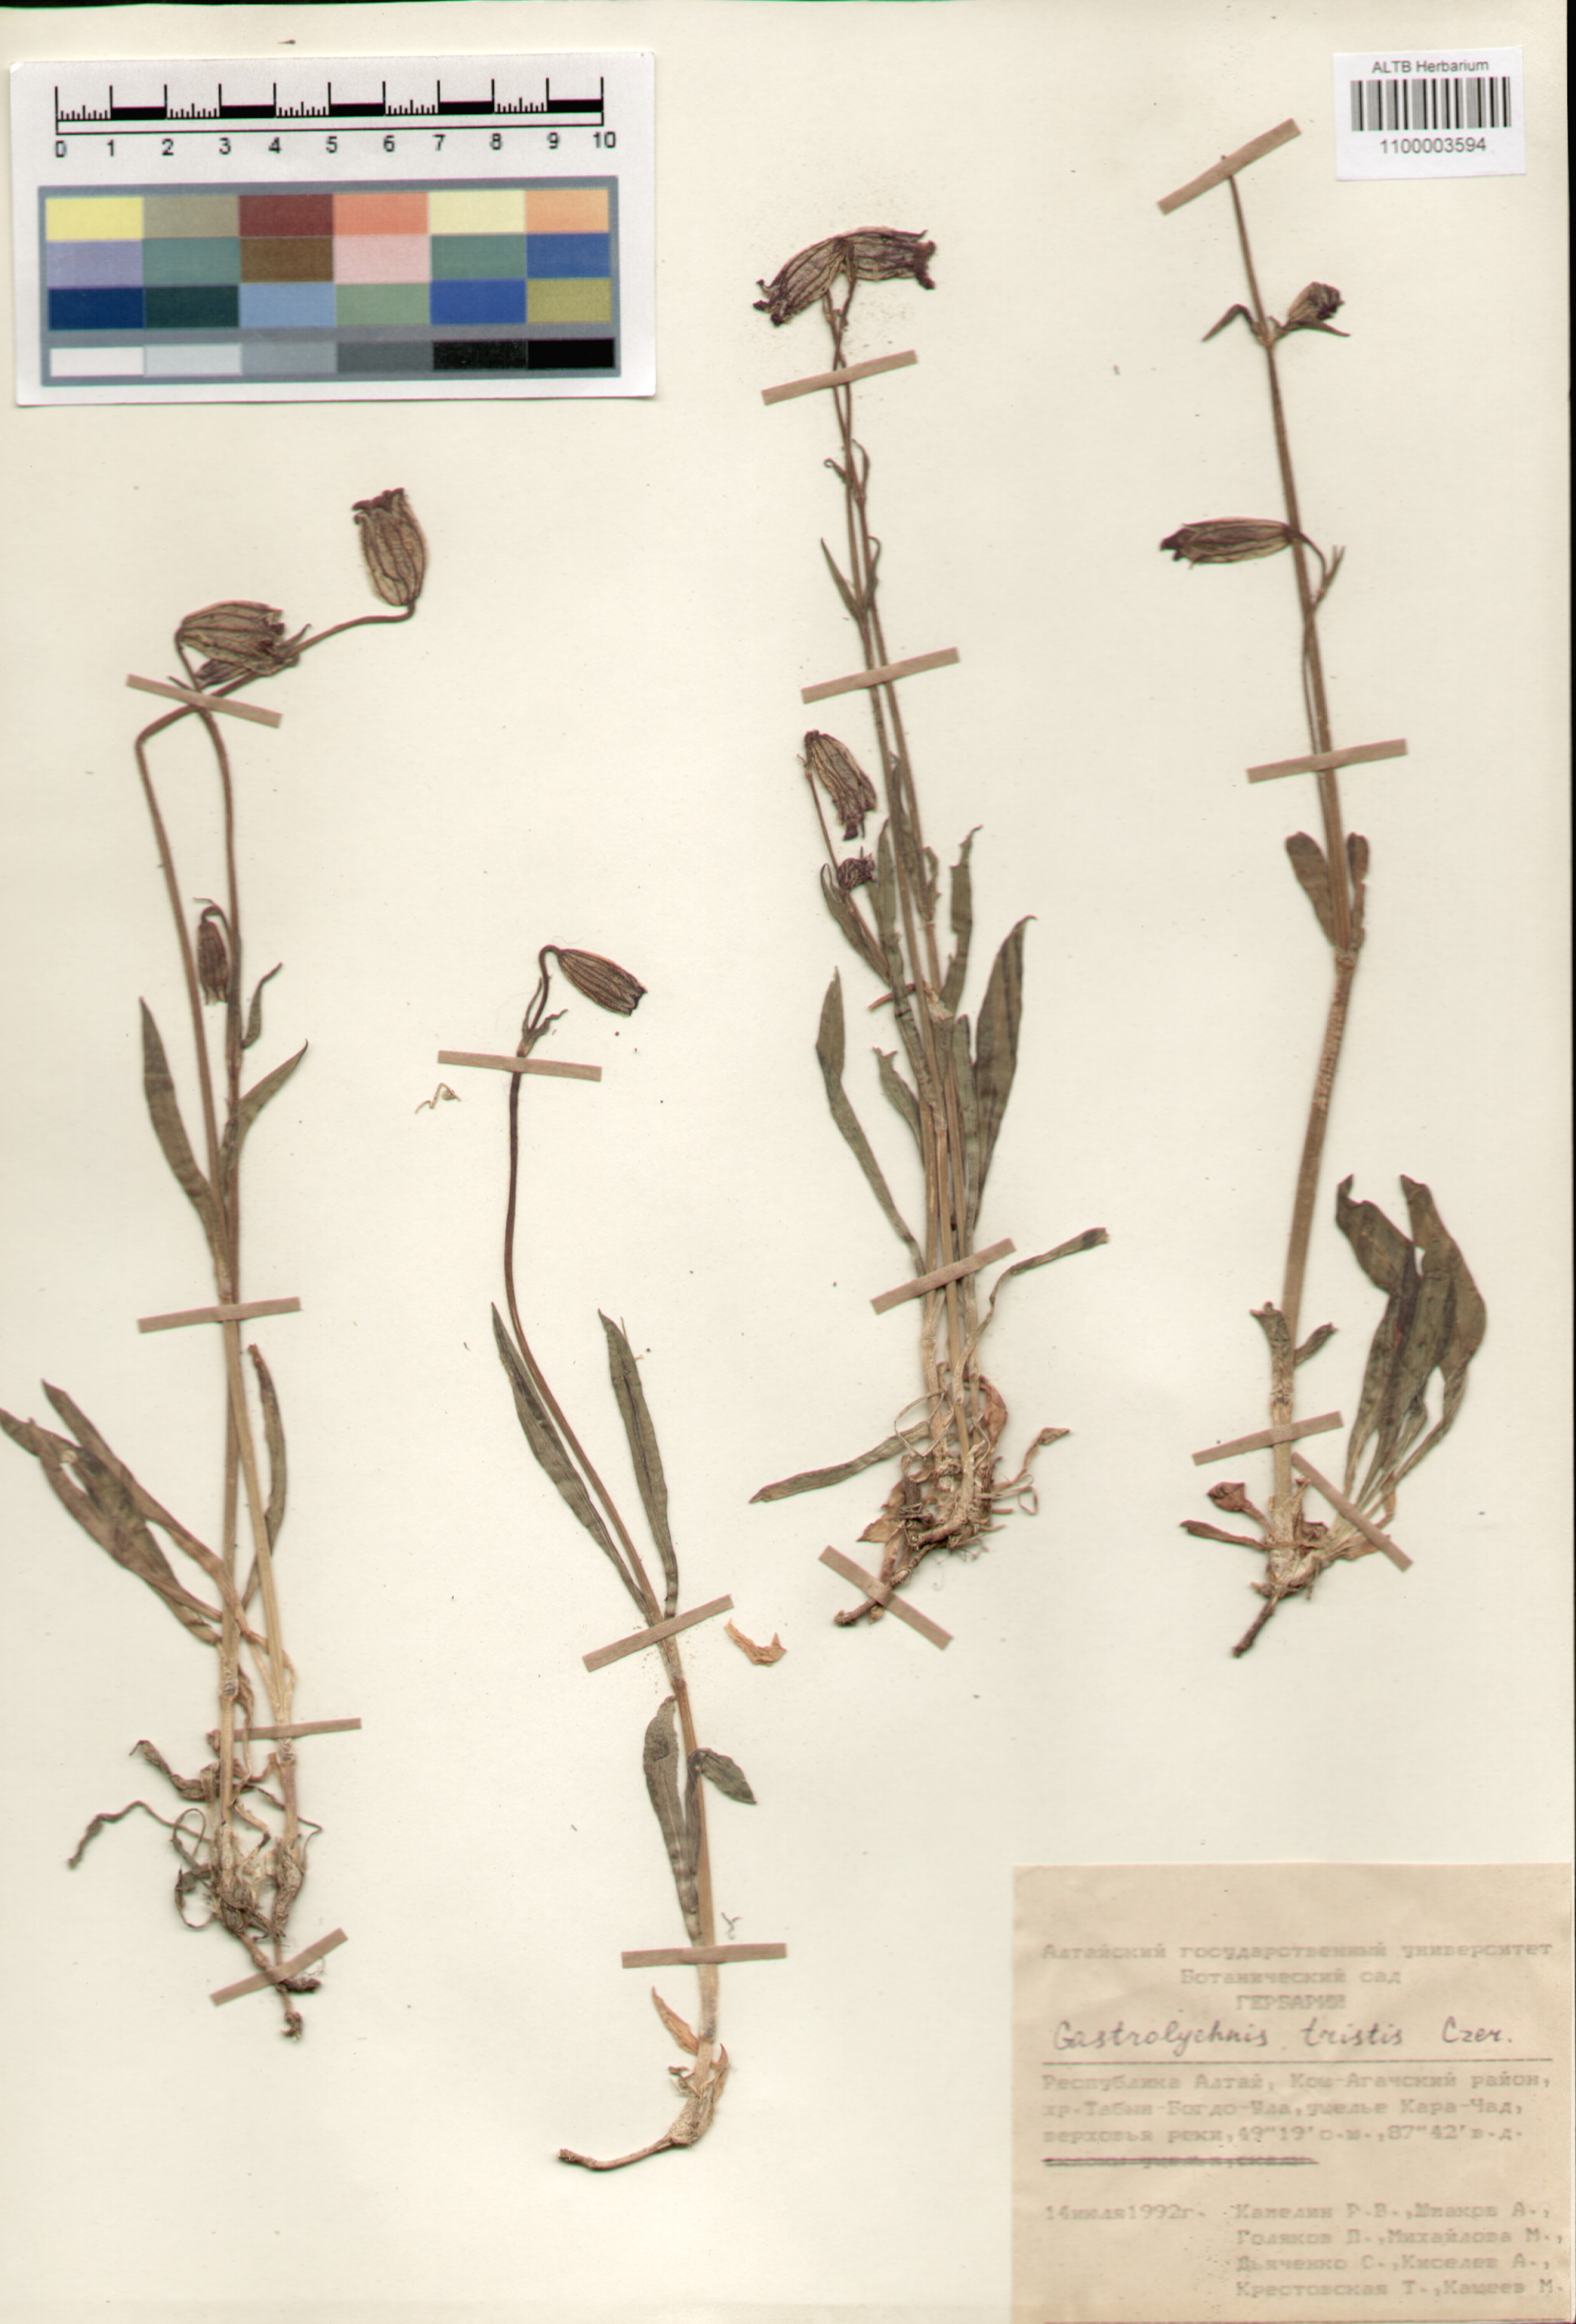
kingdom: Plantae
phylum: Tracheophyta
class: Magnoliopsida
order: Caryophyllales
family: Caryophyllaceae
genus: Silene
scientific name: Silene bungei
